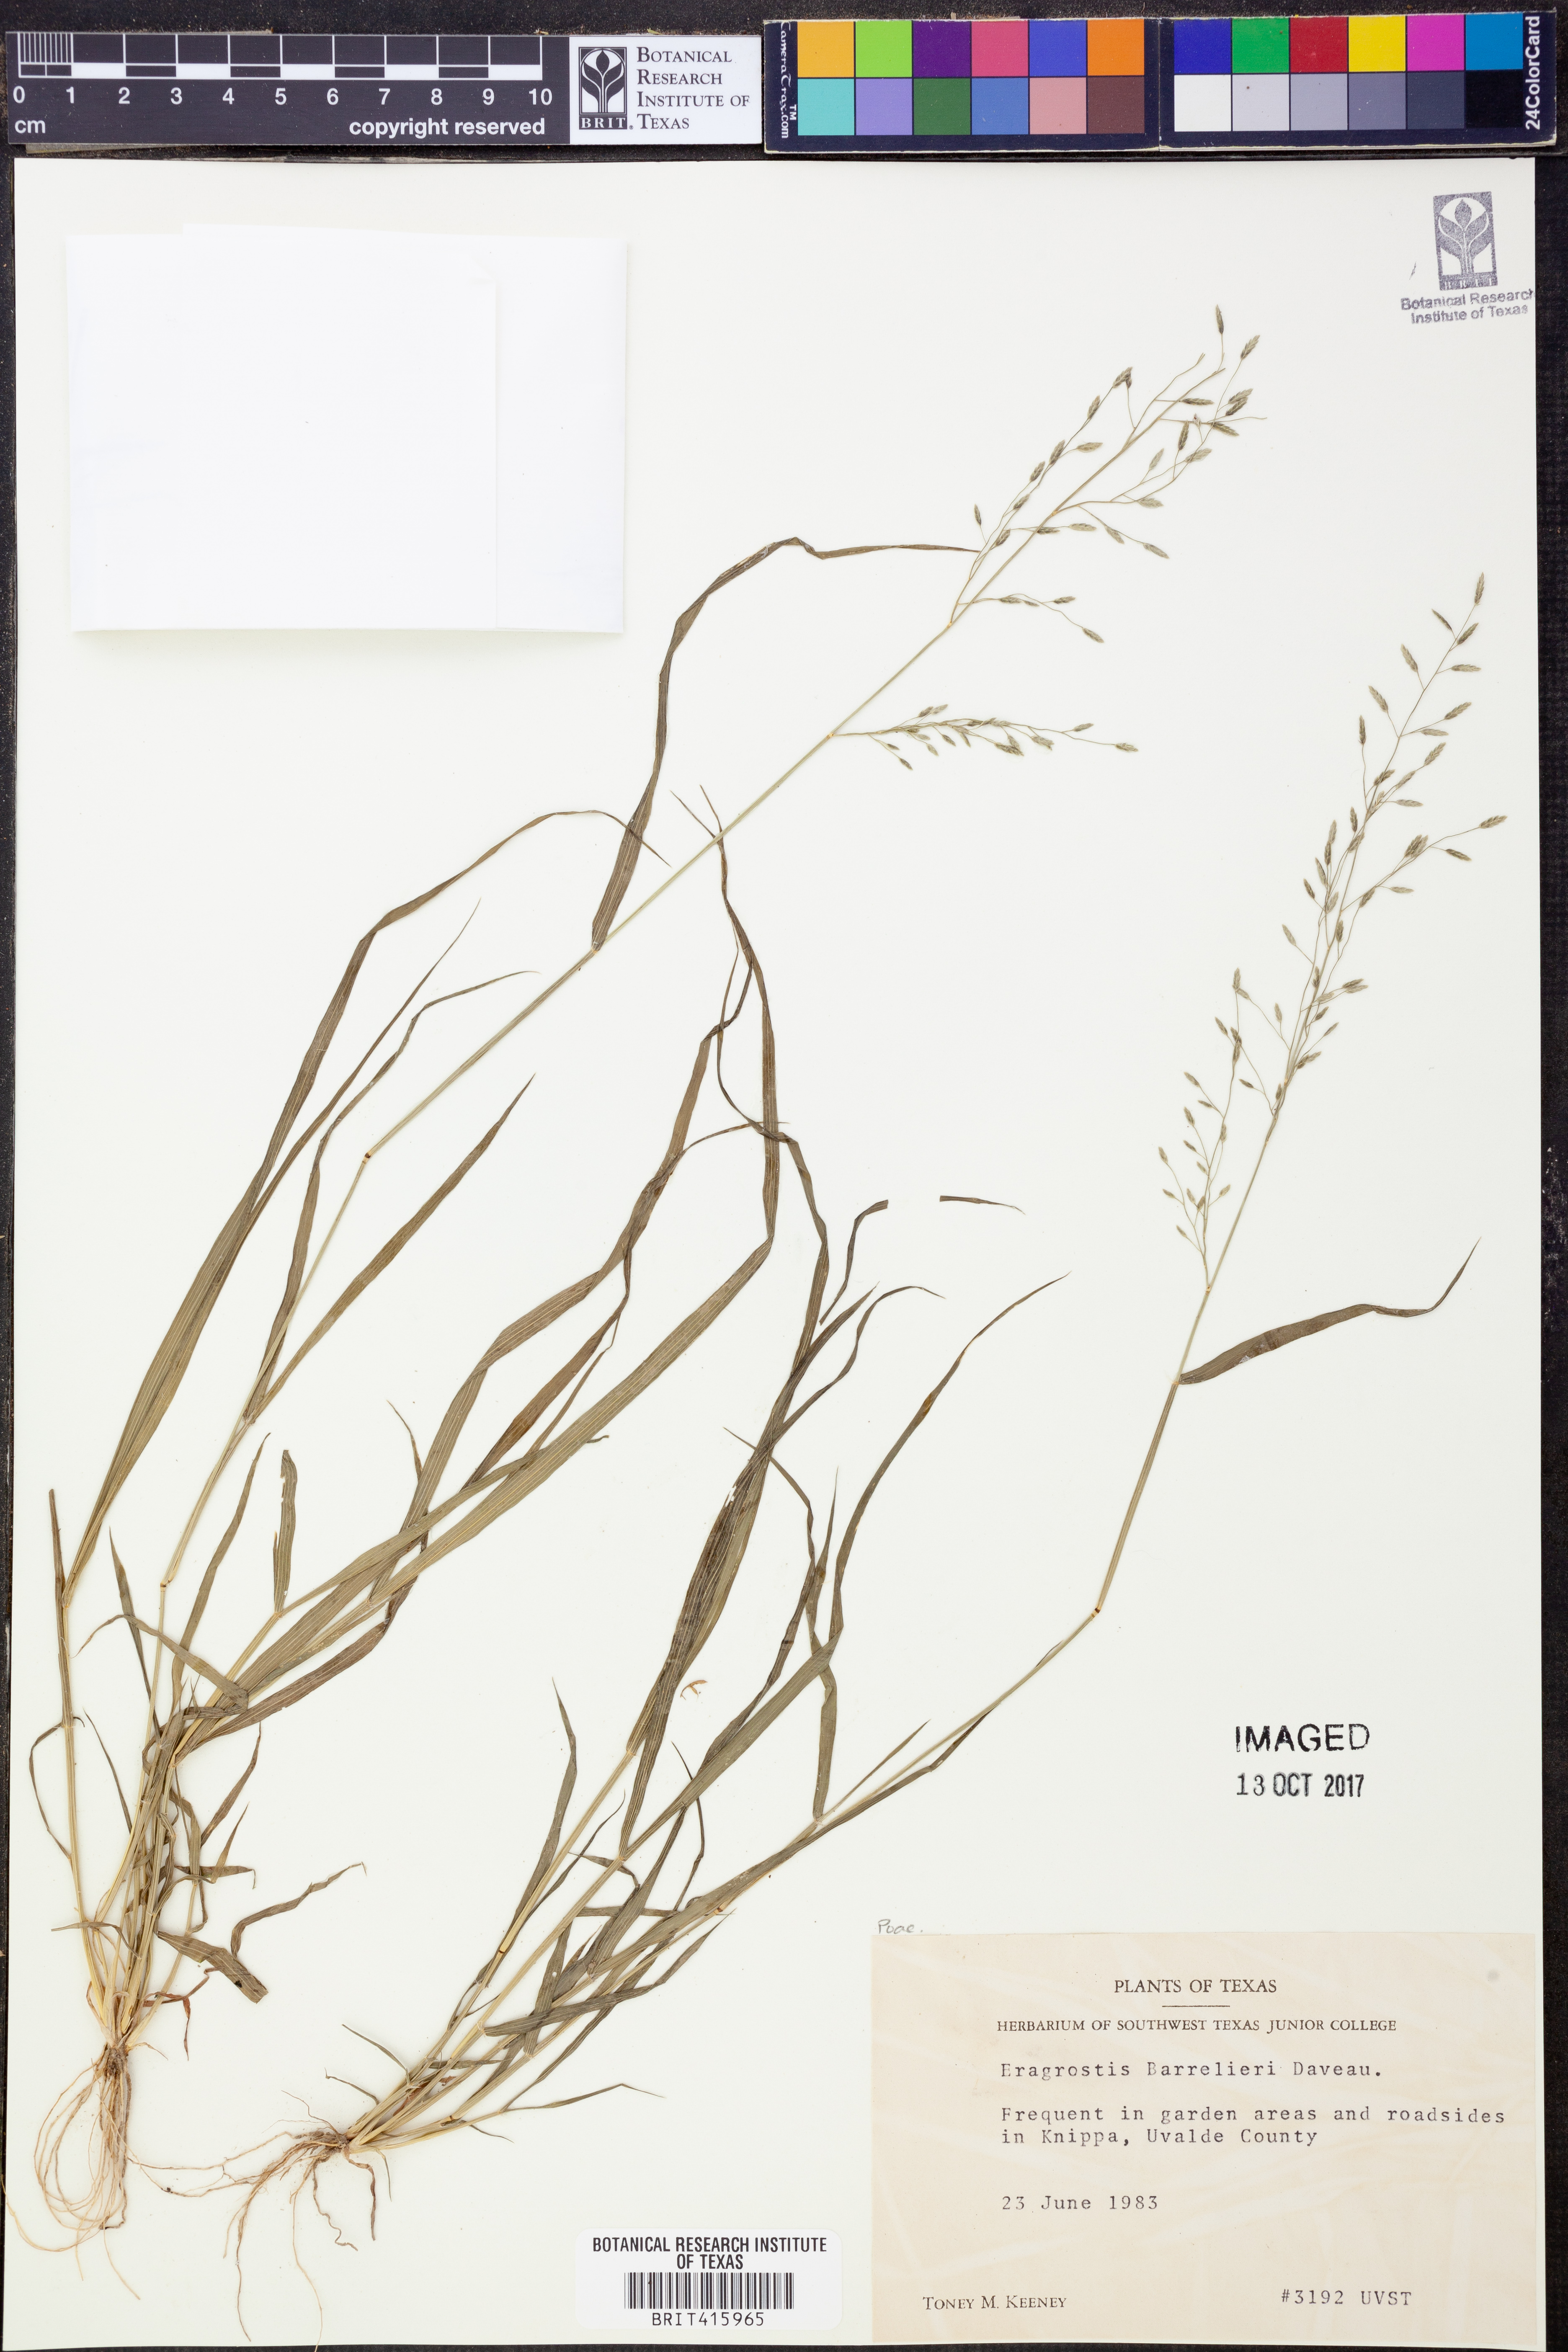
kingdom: Plantae
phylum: Tracheophyta
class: Liliopsida
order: Poales
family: Poaceae
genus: Eragrostis
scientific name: Eragrostis barrelieri
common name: Mediterranean lovegrass
